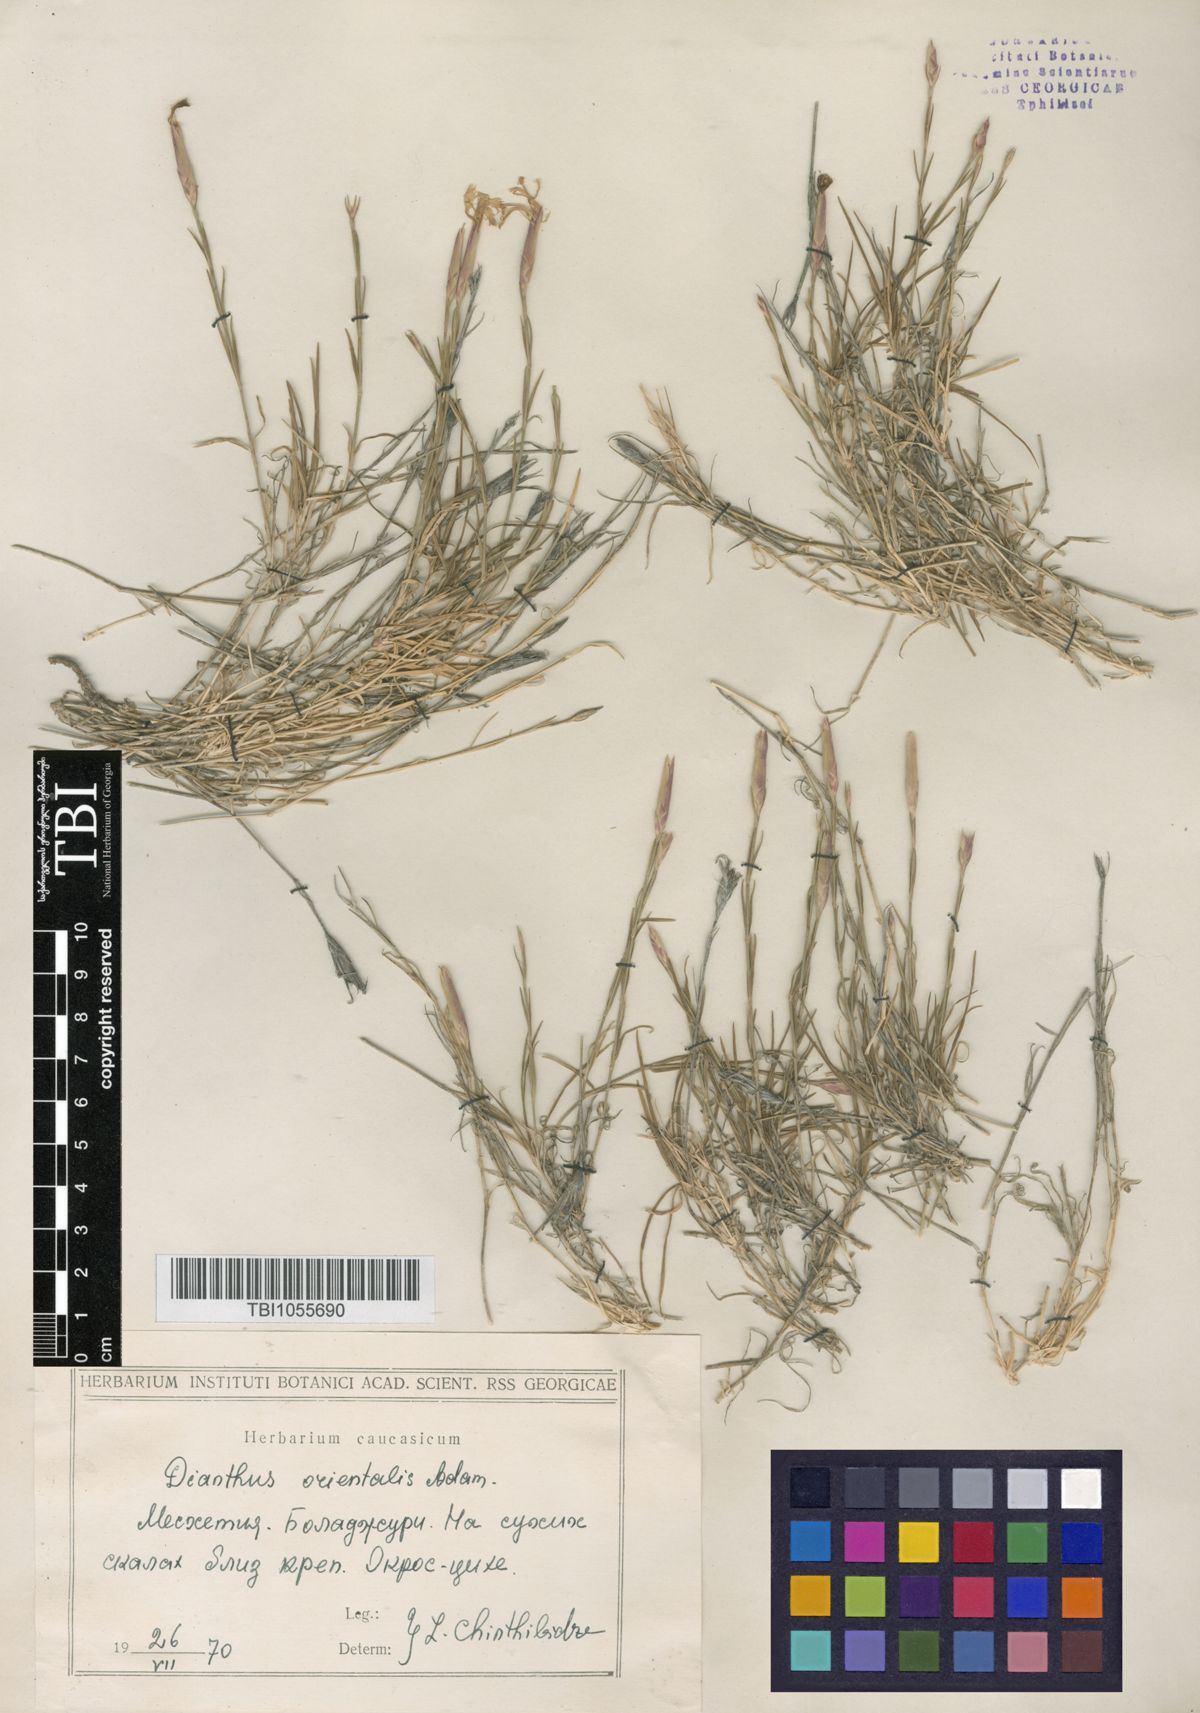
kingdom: Plantae
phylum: Tracheophyta
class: Magnoliopsida
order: Caryophyllales
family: Caryophyllaceae
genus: Dianthus
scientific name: Dianthus orientalis
